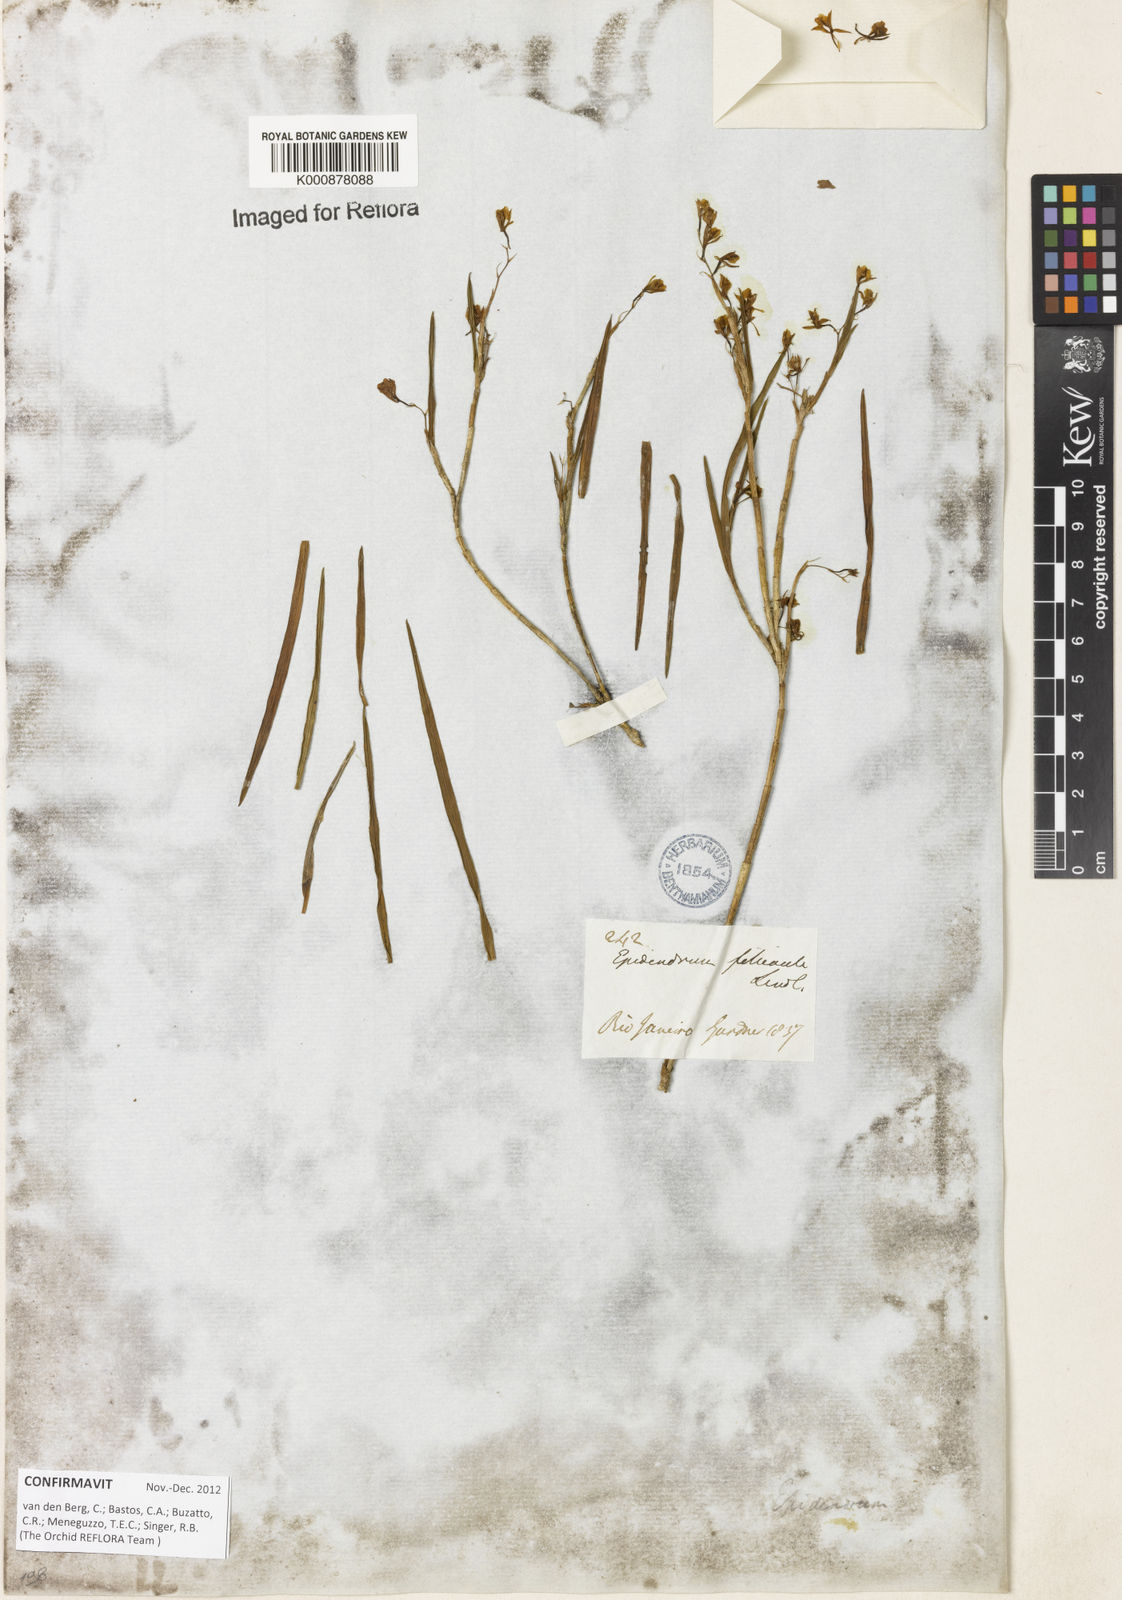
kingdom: Plantae
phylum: Tracheophyta
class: Liliopsida
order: Asparagales
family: Orchidaceae
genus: Epidendrum
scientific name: Epidendrum filicaule
